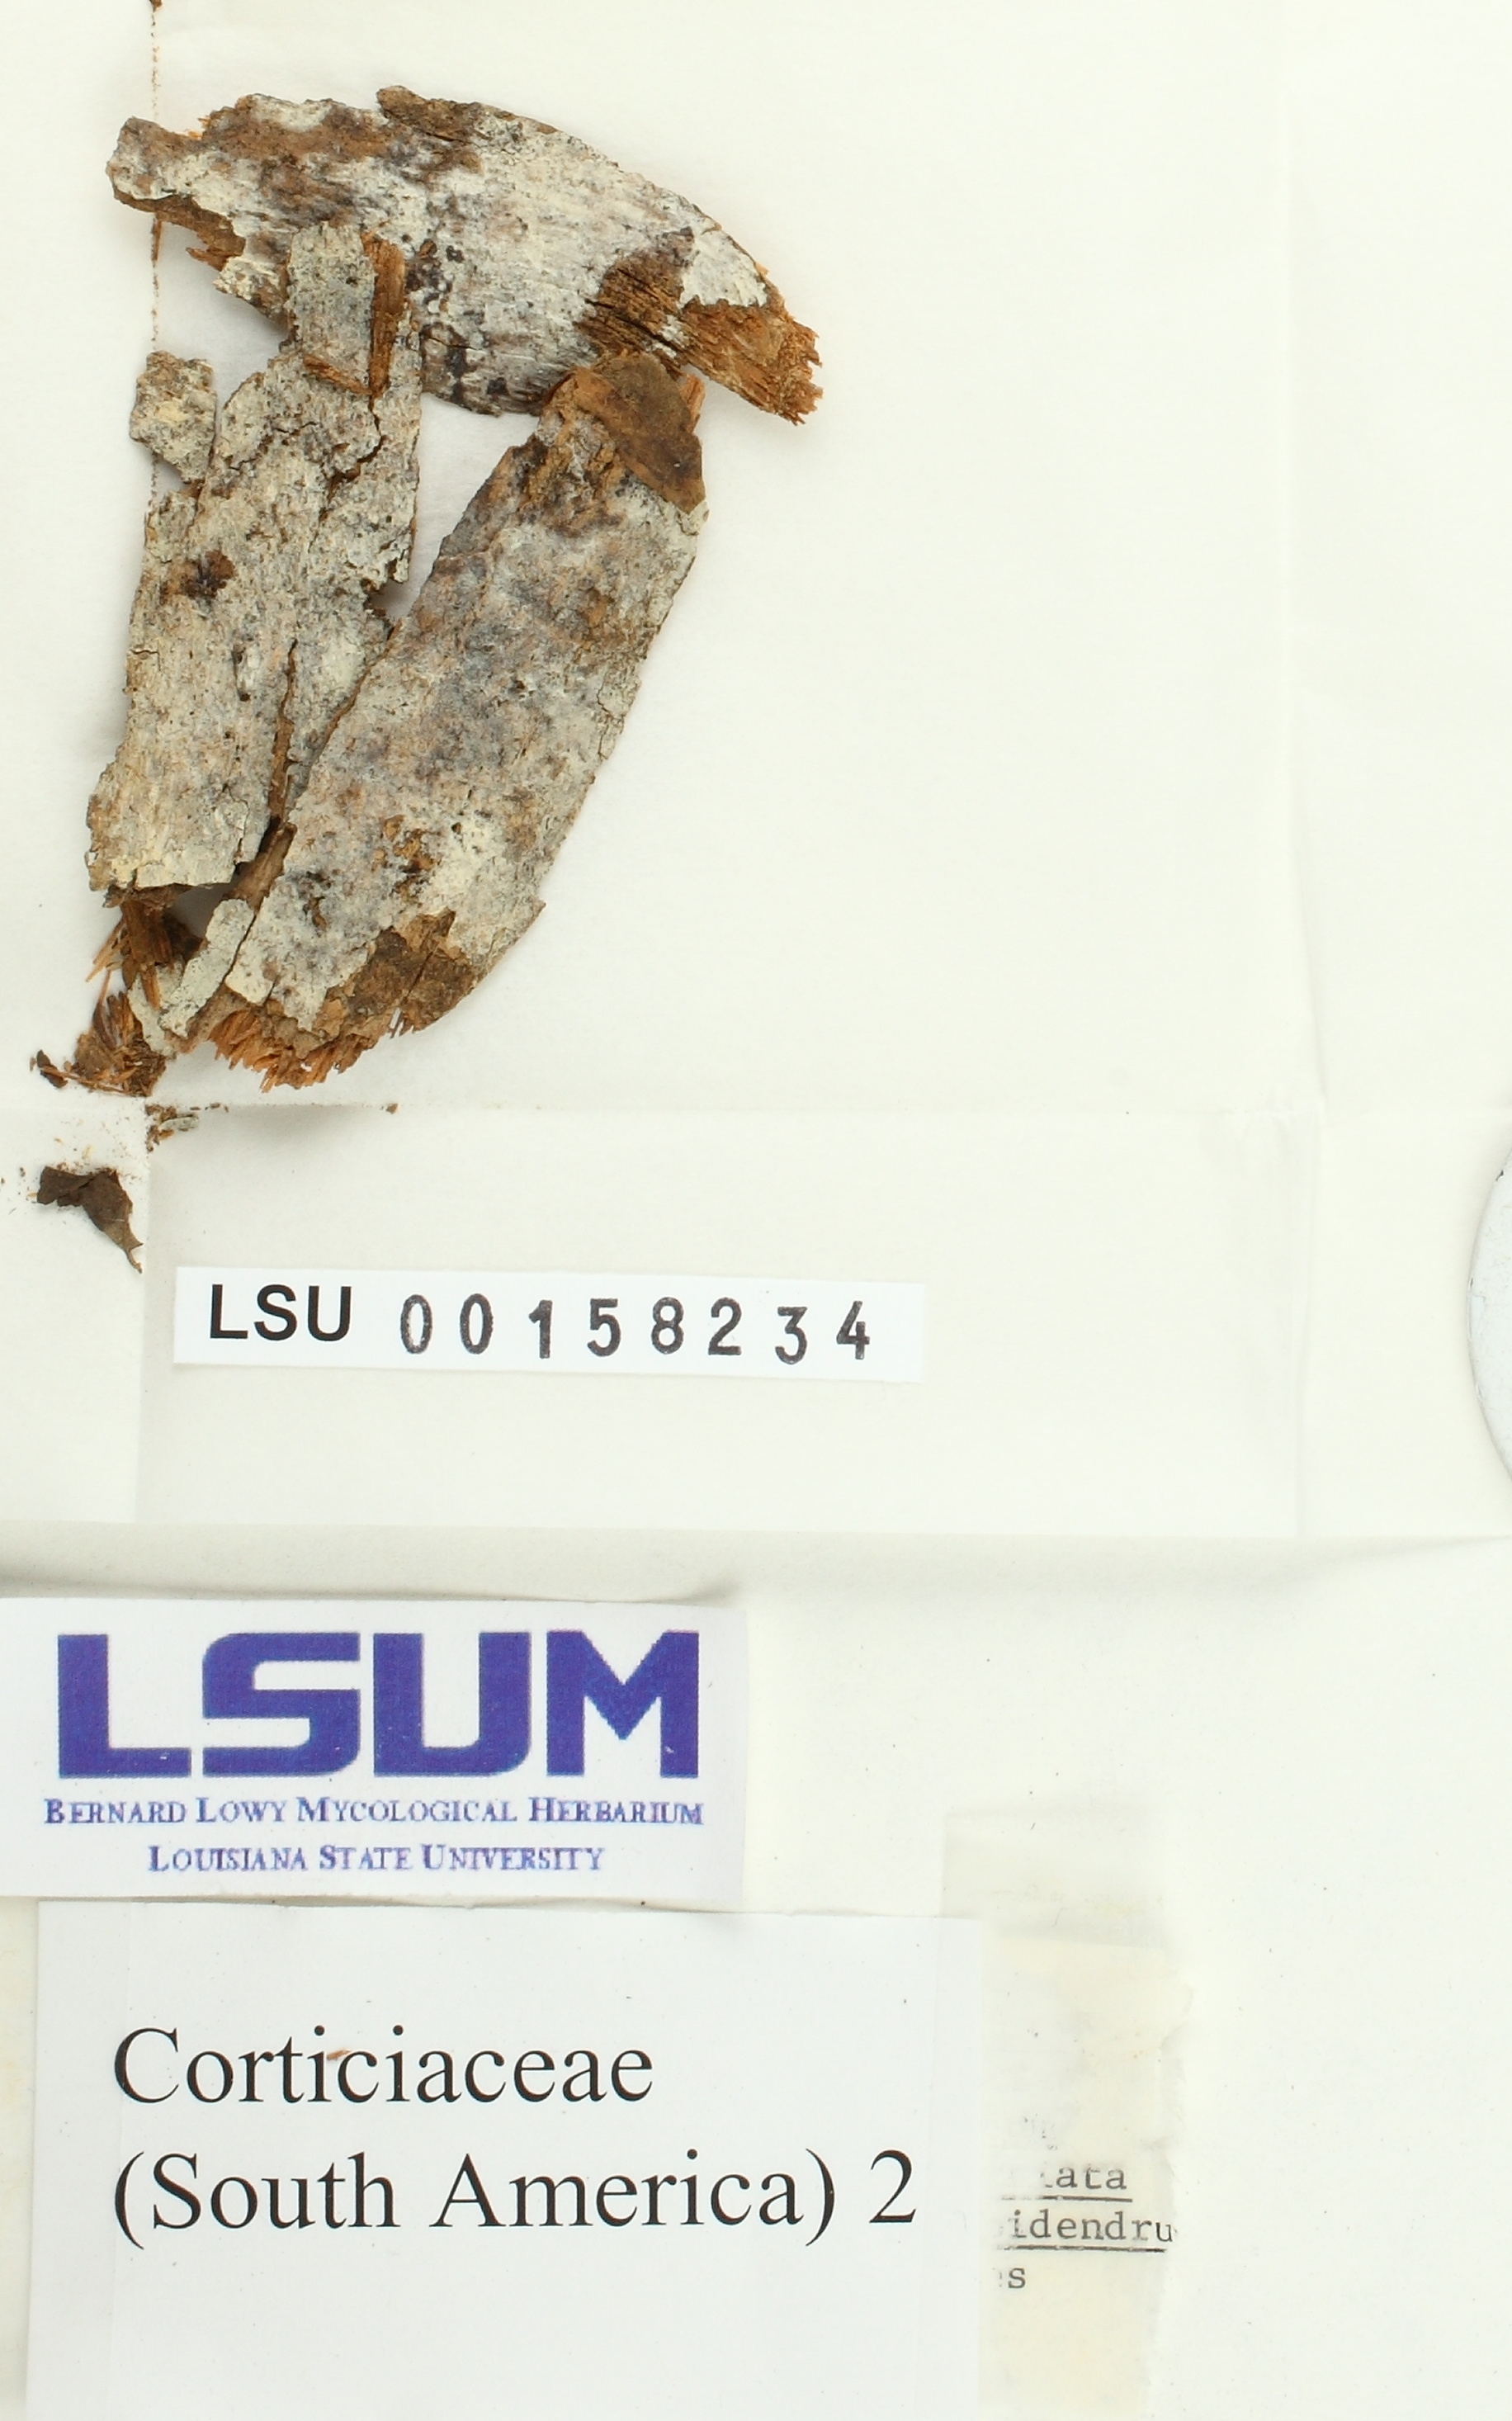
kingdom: Fungi
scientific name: Fungi
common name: Fungi
